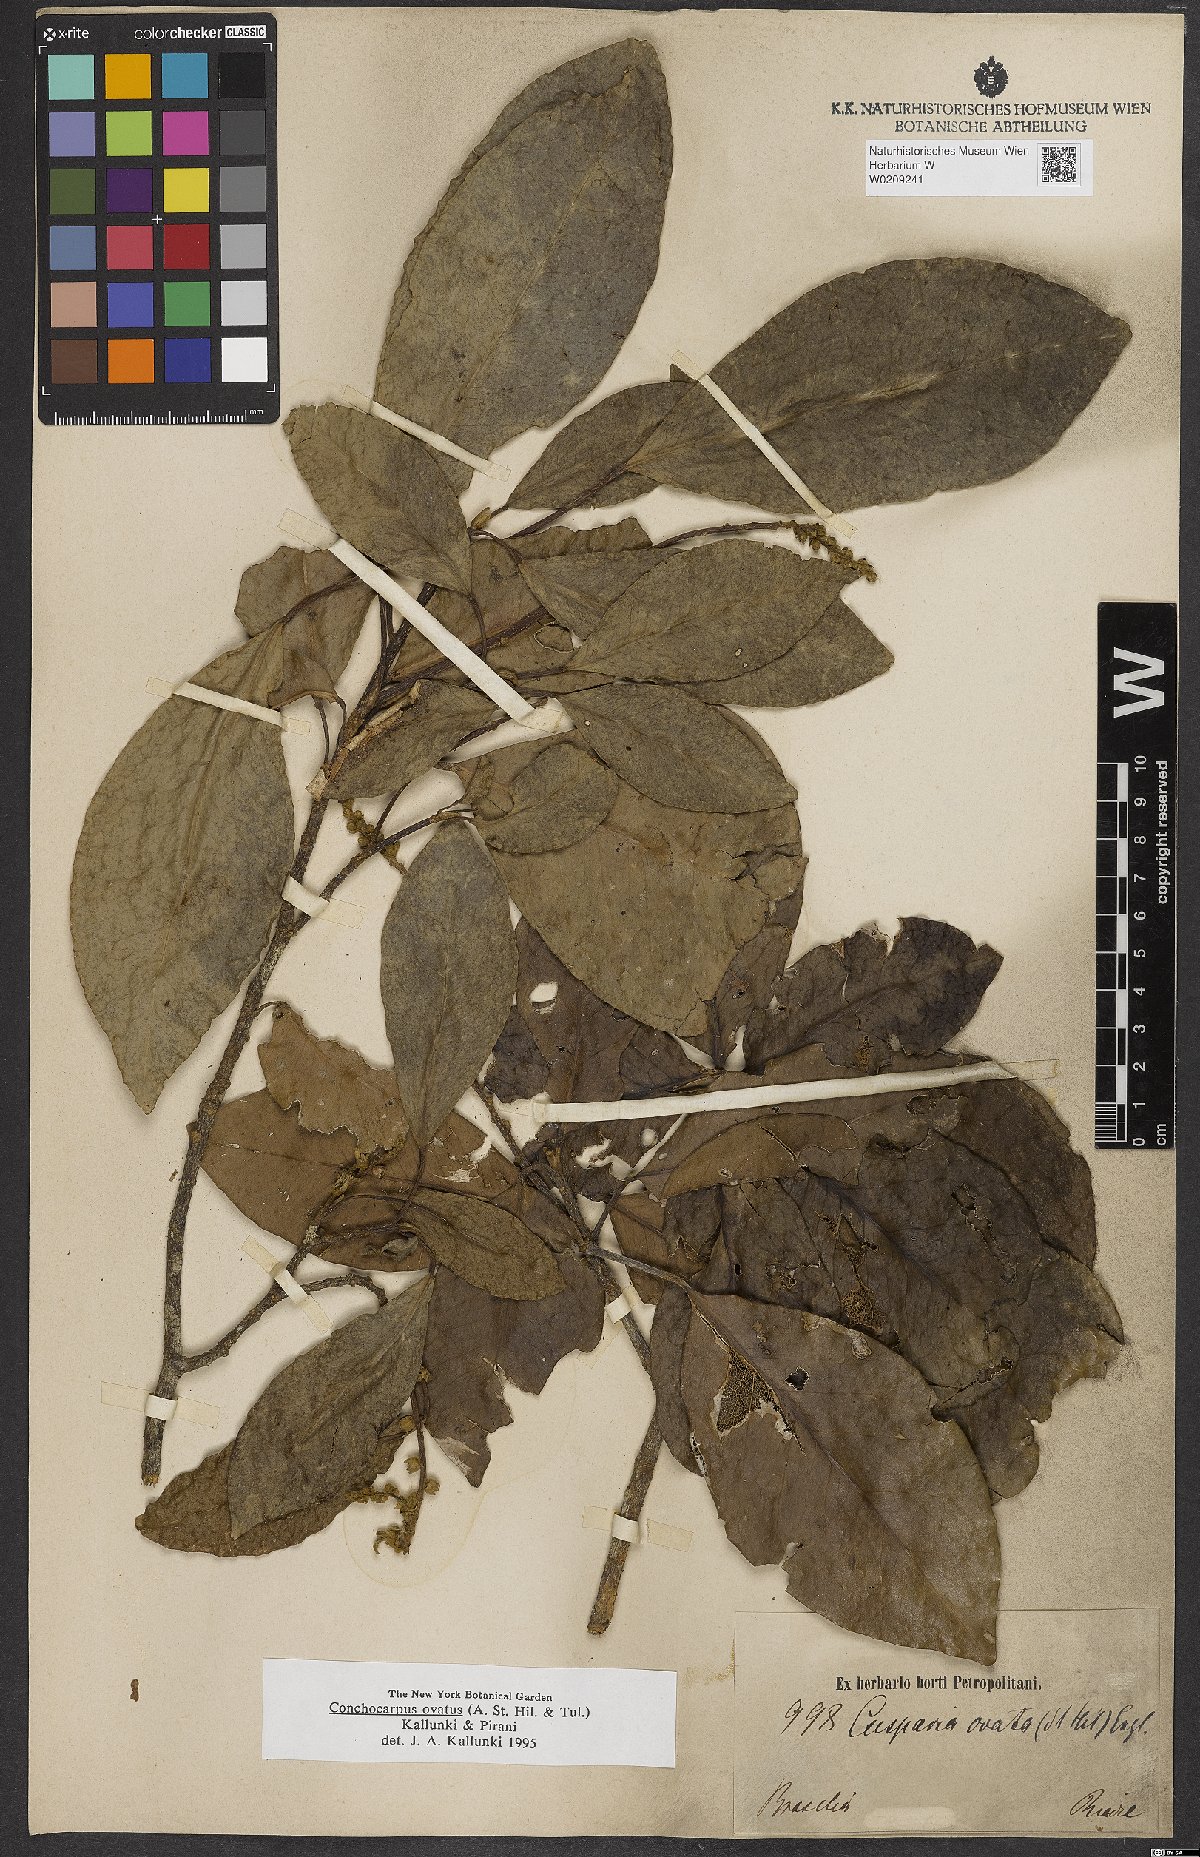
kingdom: Plantae
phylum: Tracheophyta
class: Magnoliopsida
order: Sapindales
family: Rutaceae
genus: Conchocarpus
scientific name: Conchocarpus ovatus
